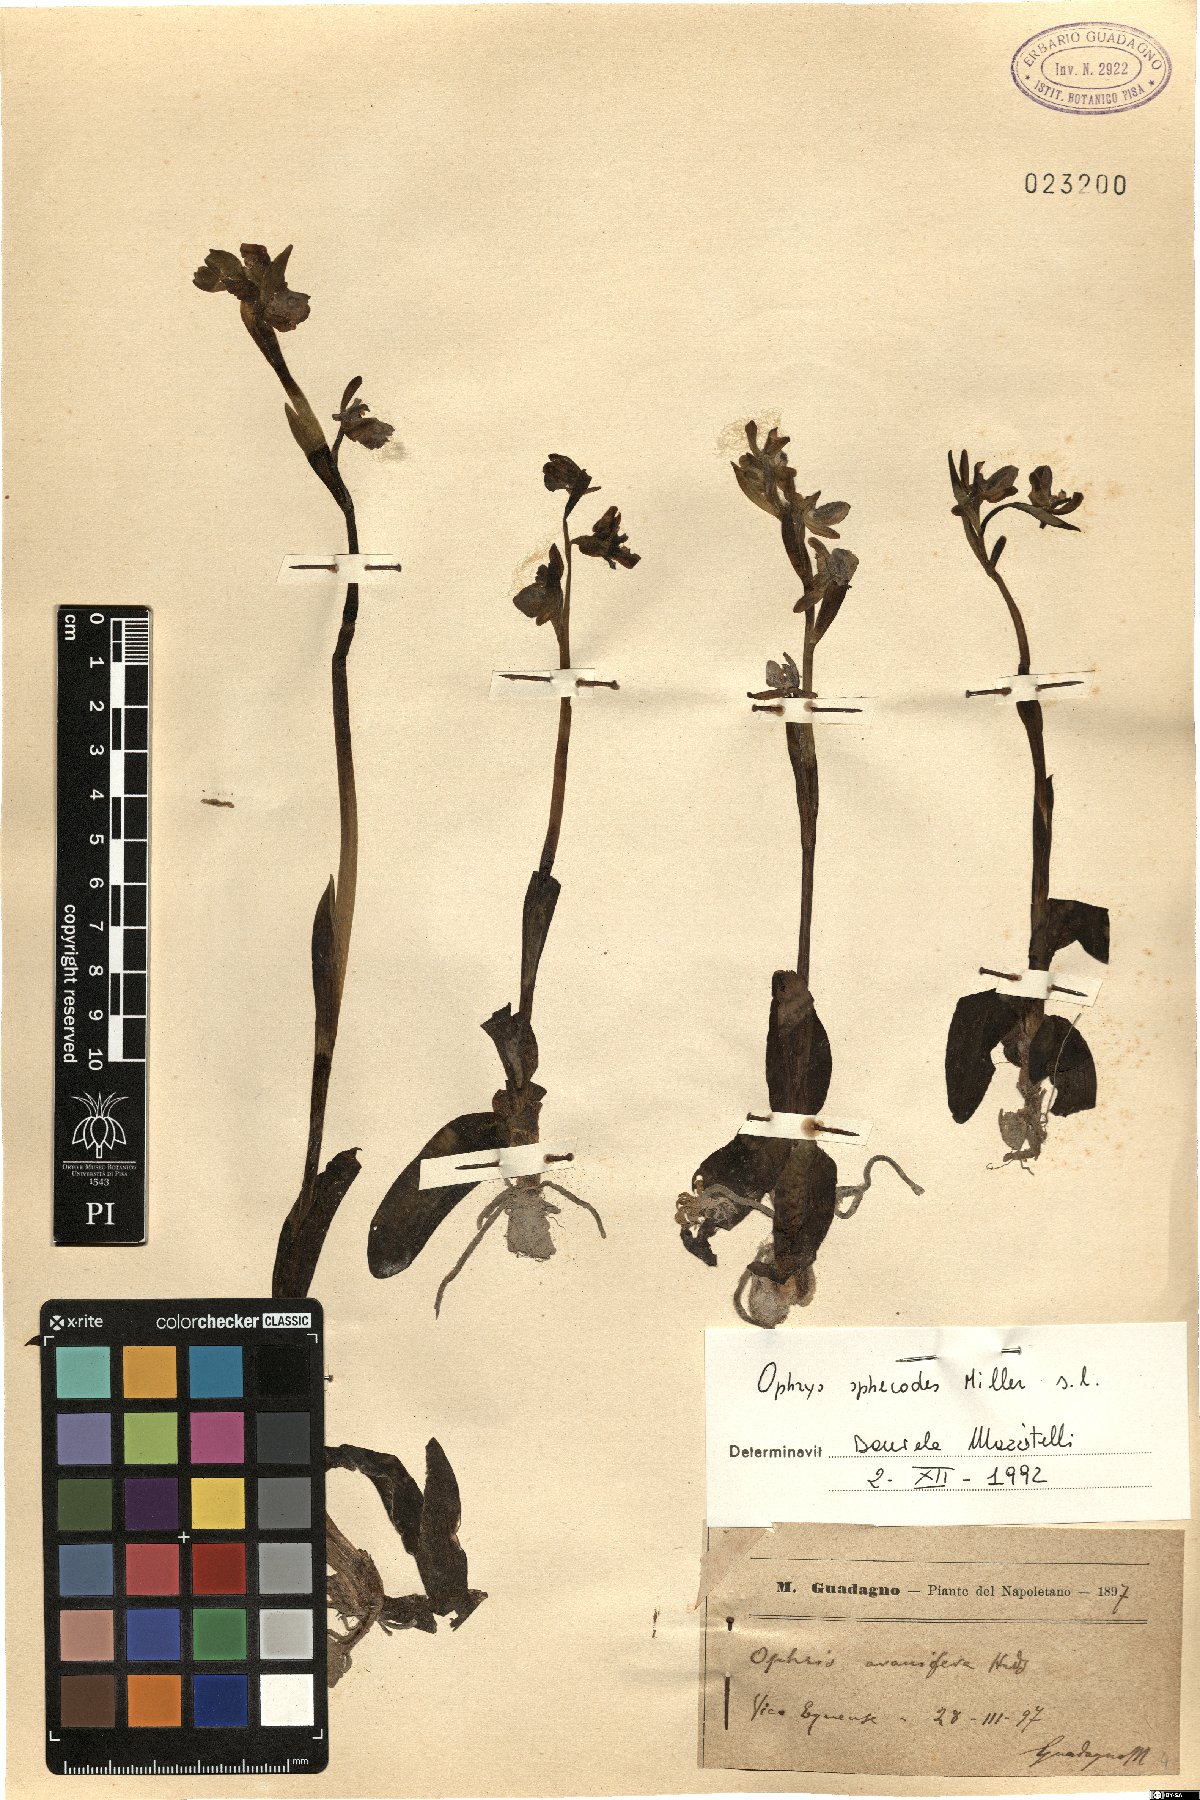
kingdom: Plantae
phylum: Tracheophyta
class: Liliopsida
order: Asparagales
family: Orchidaceae
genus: Ophrys
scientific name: Ophrys sphegodes
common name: Early spider-orchid
